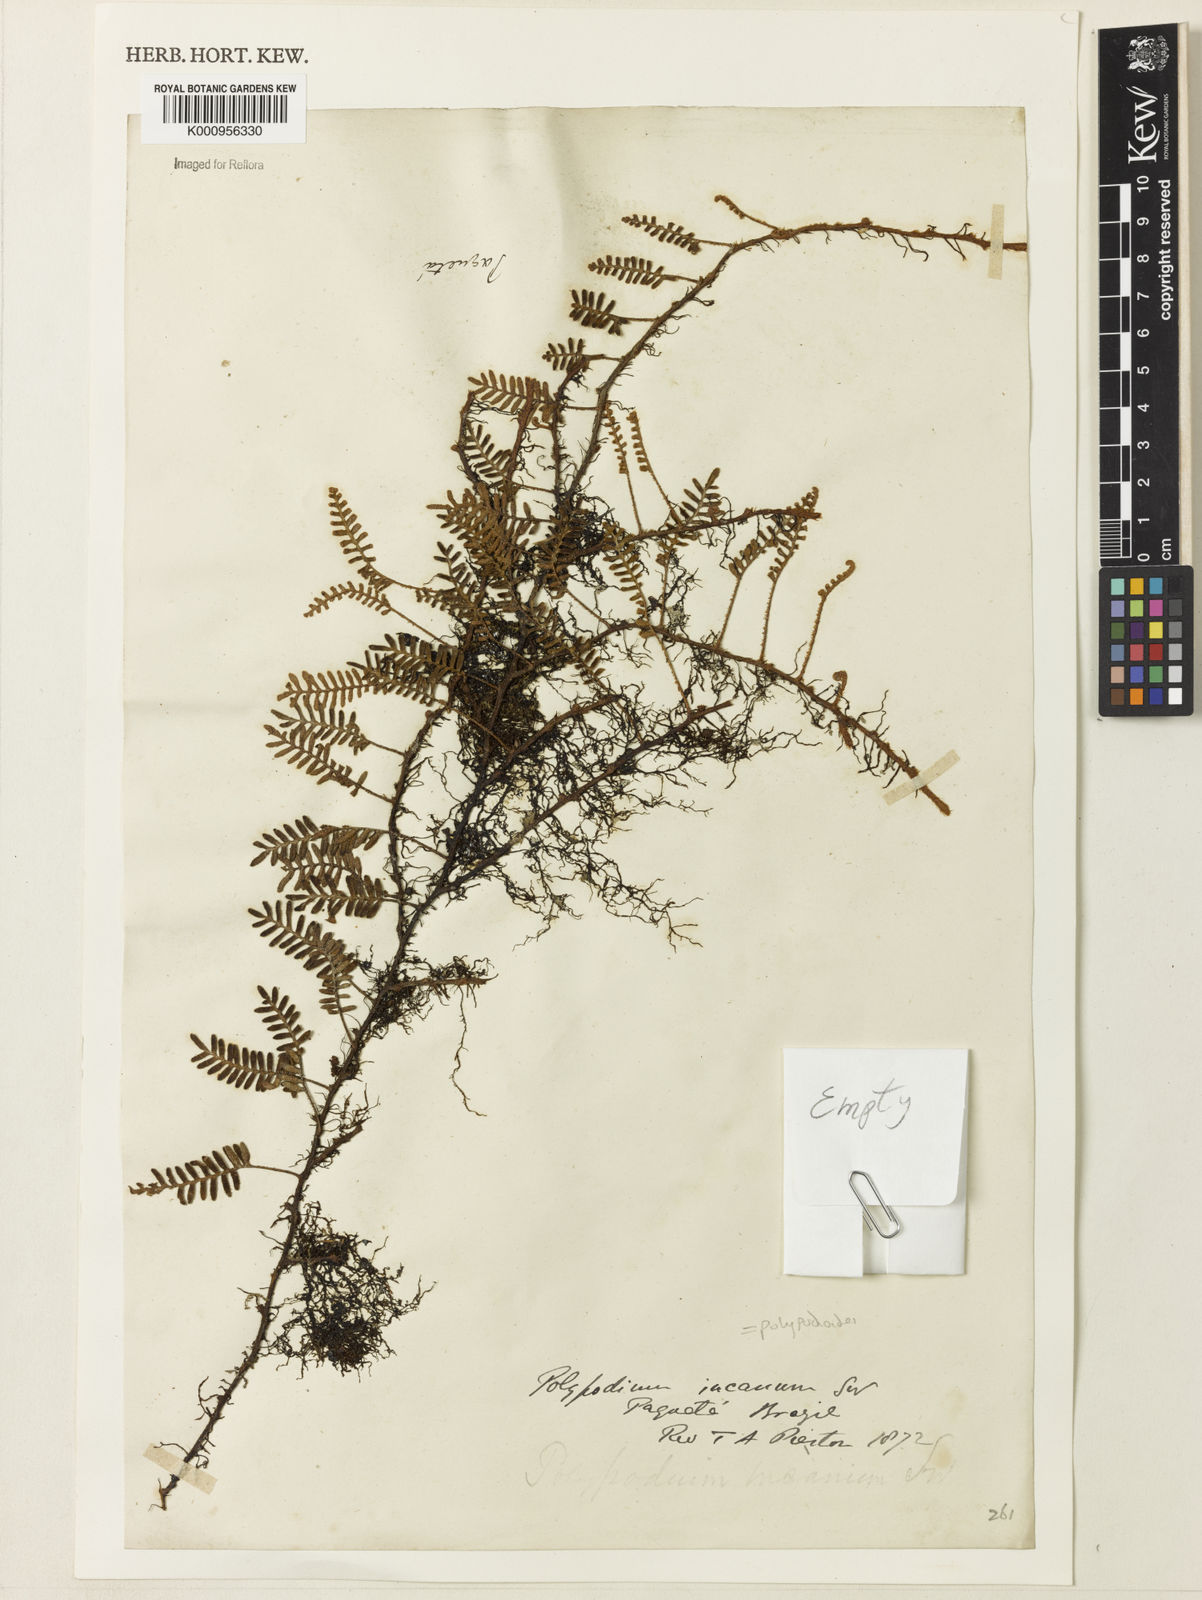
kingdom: Plantae
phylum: Tracheophyta
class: Polypodiopsida
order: Polypodiales
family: Polypodiaceae
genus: Pleopeltis
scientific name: Pleopeltis polypodioides
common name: Resurrection fern
